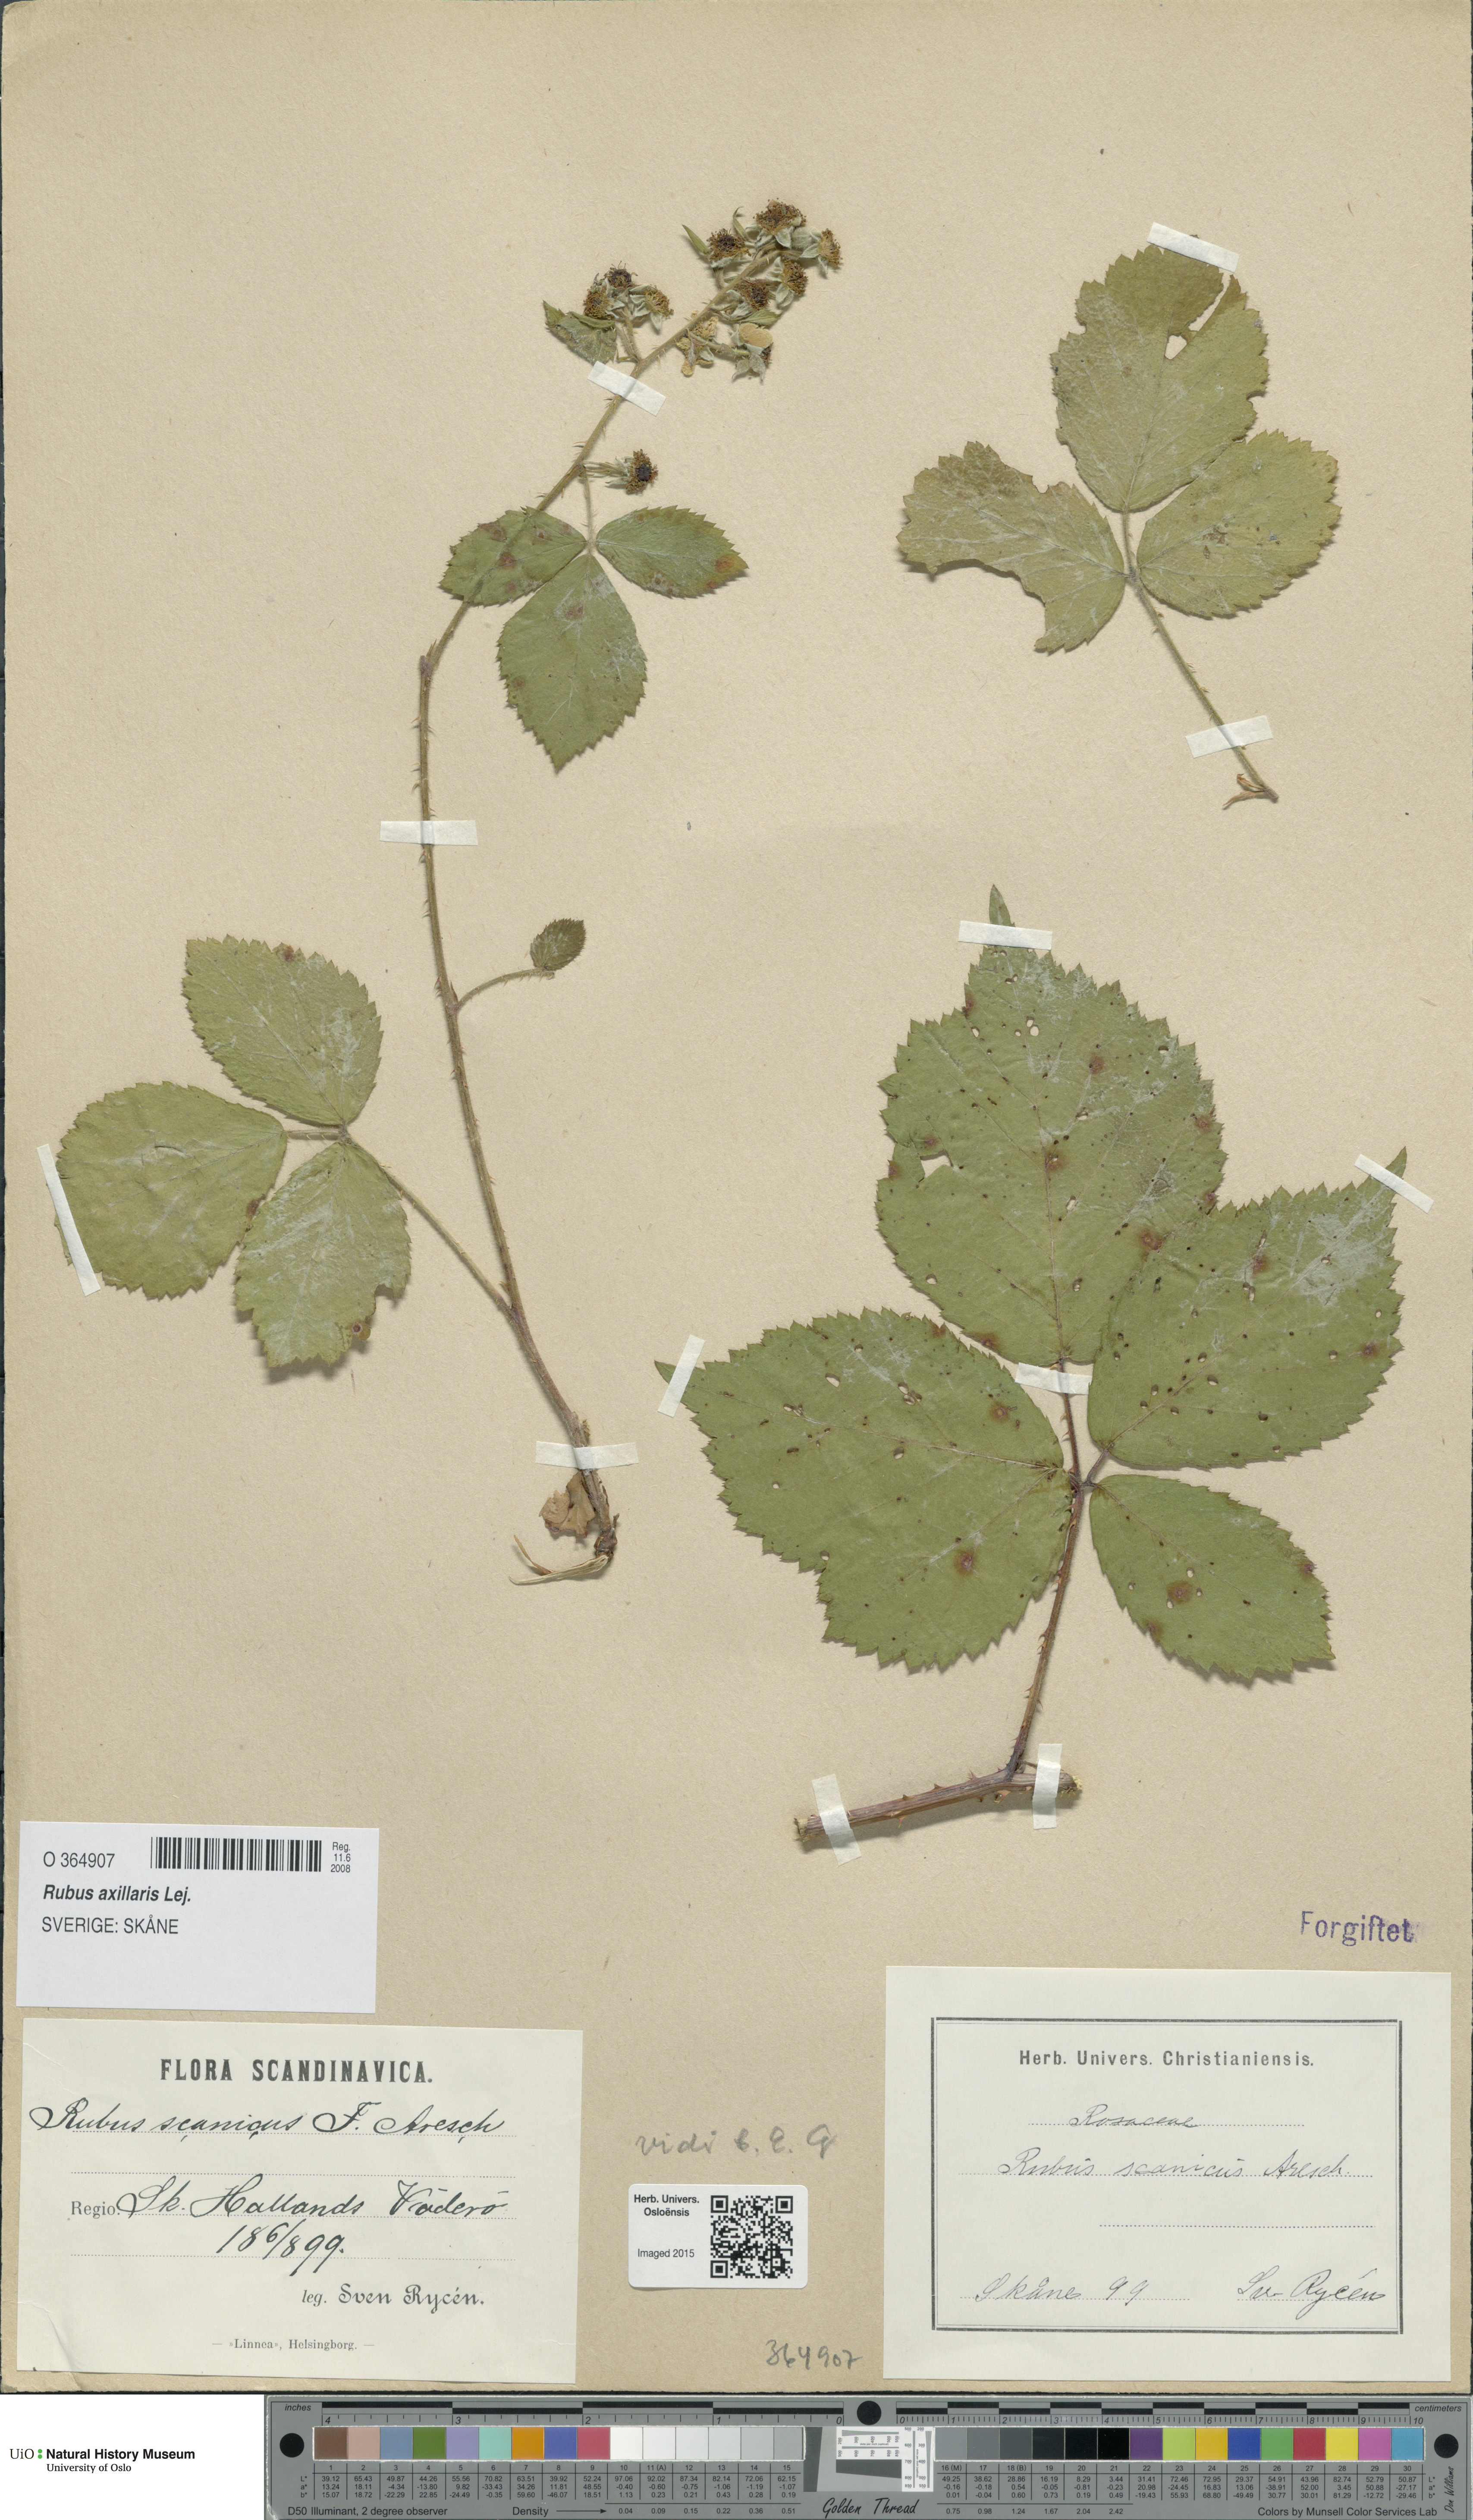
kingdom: Plantae
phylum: Tracheophyta
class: Magnoliopsida
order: Rosales
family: Rosaceae
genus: Rubus
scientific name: Rubus axillaris
